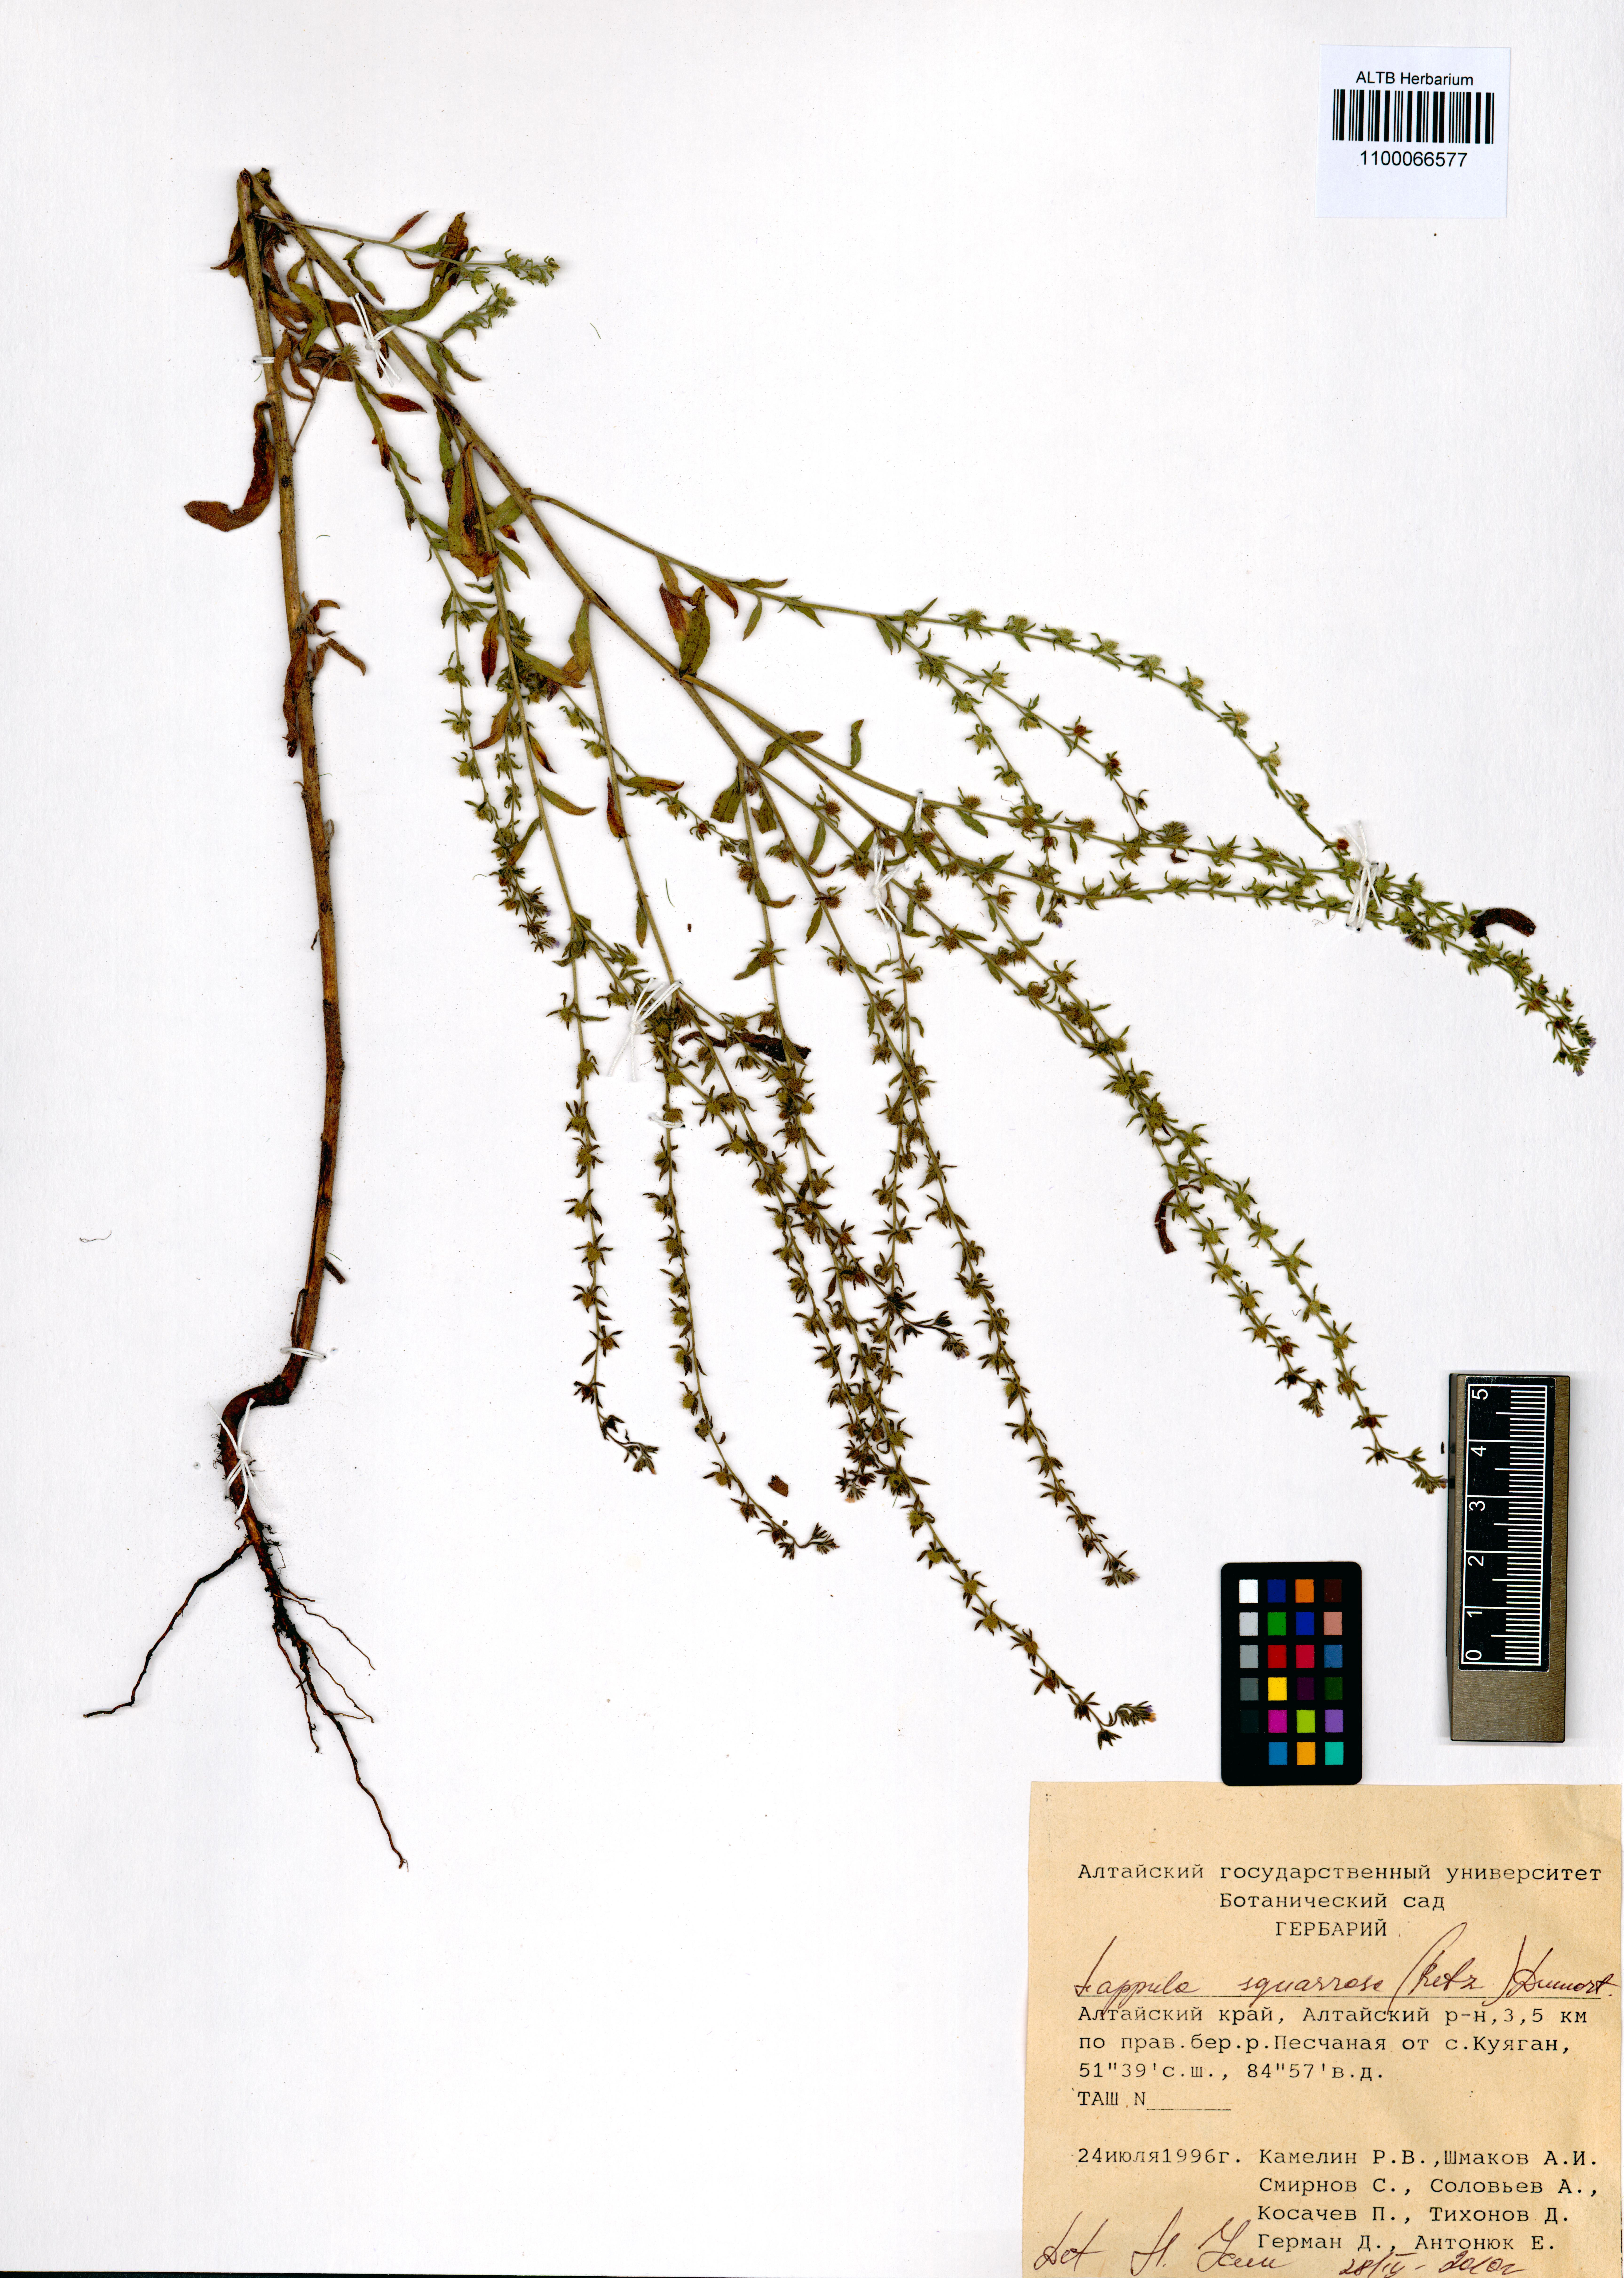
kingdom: Plantae
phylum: Tracheophyta
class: Magnoliopsida
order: Boraginales
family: Boraginaceae
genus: Lappula
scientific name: Lappula squarrosa
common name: European stickseed
